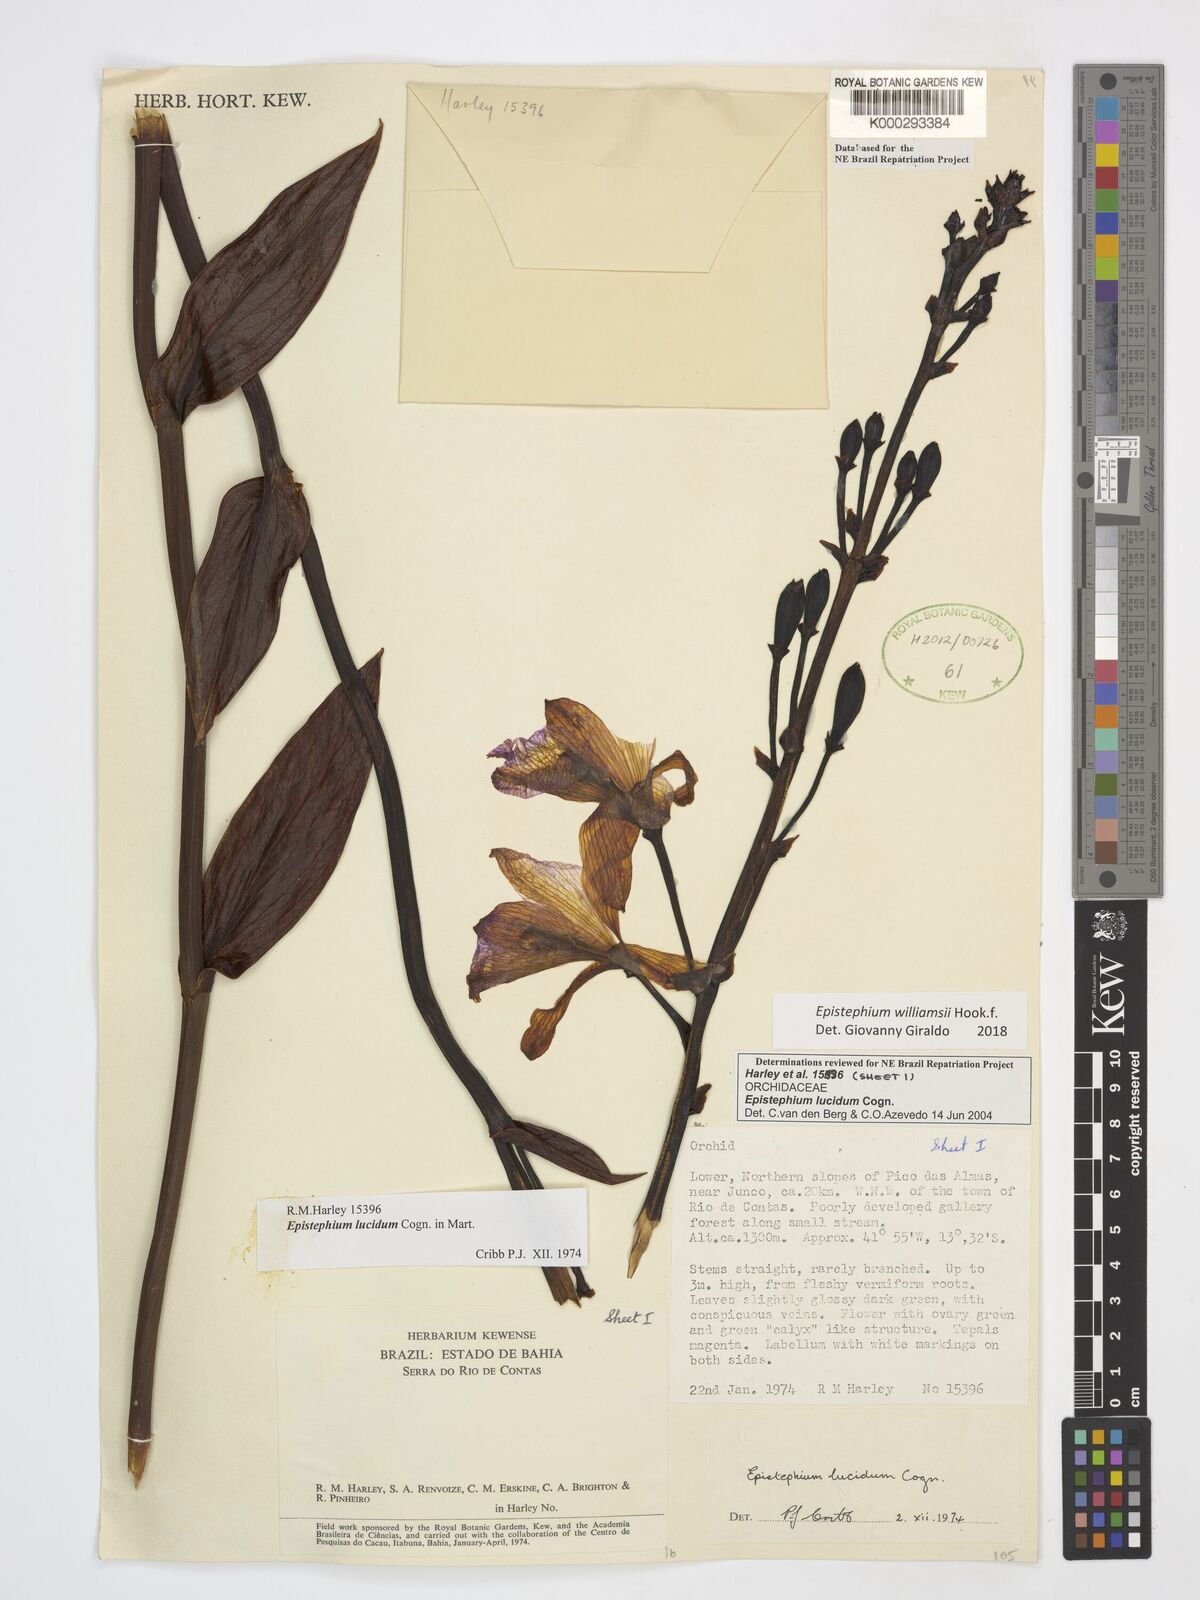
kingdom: Plantae
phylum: Tracheophyta
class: Liliopsida
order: Asparagales
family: Orchidaceae
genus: Epistephium
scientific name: Epistephium williamsii
